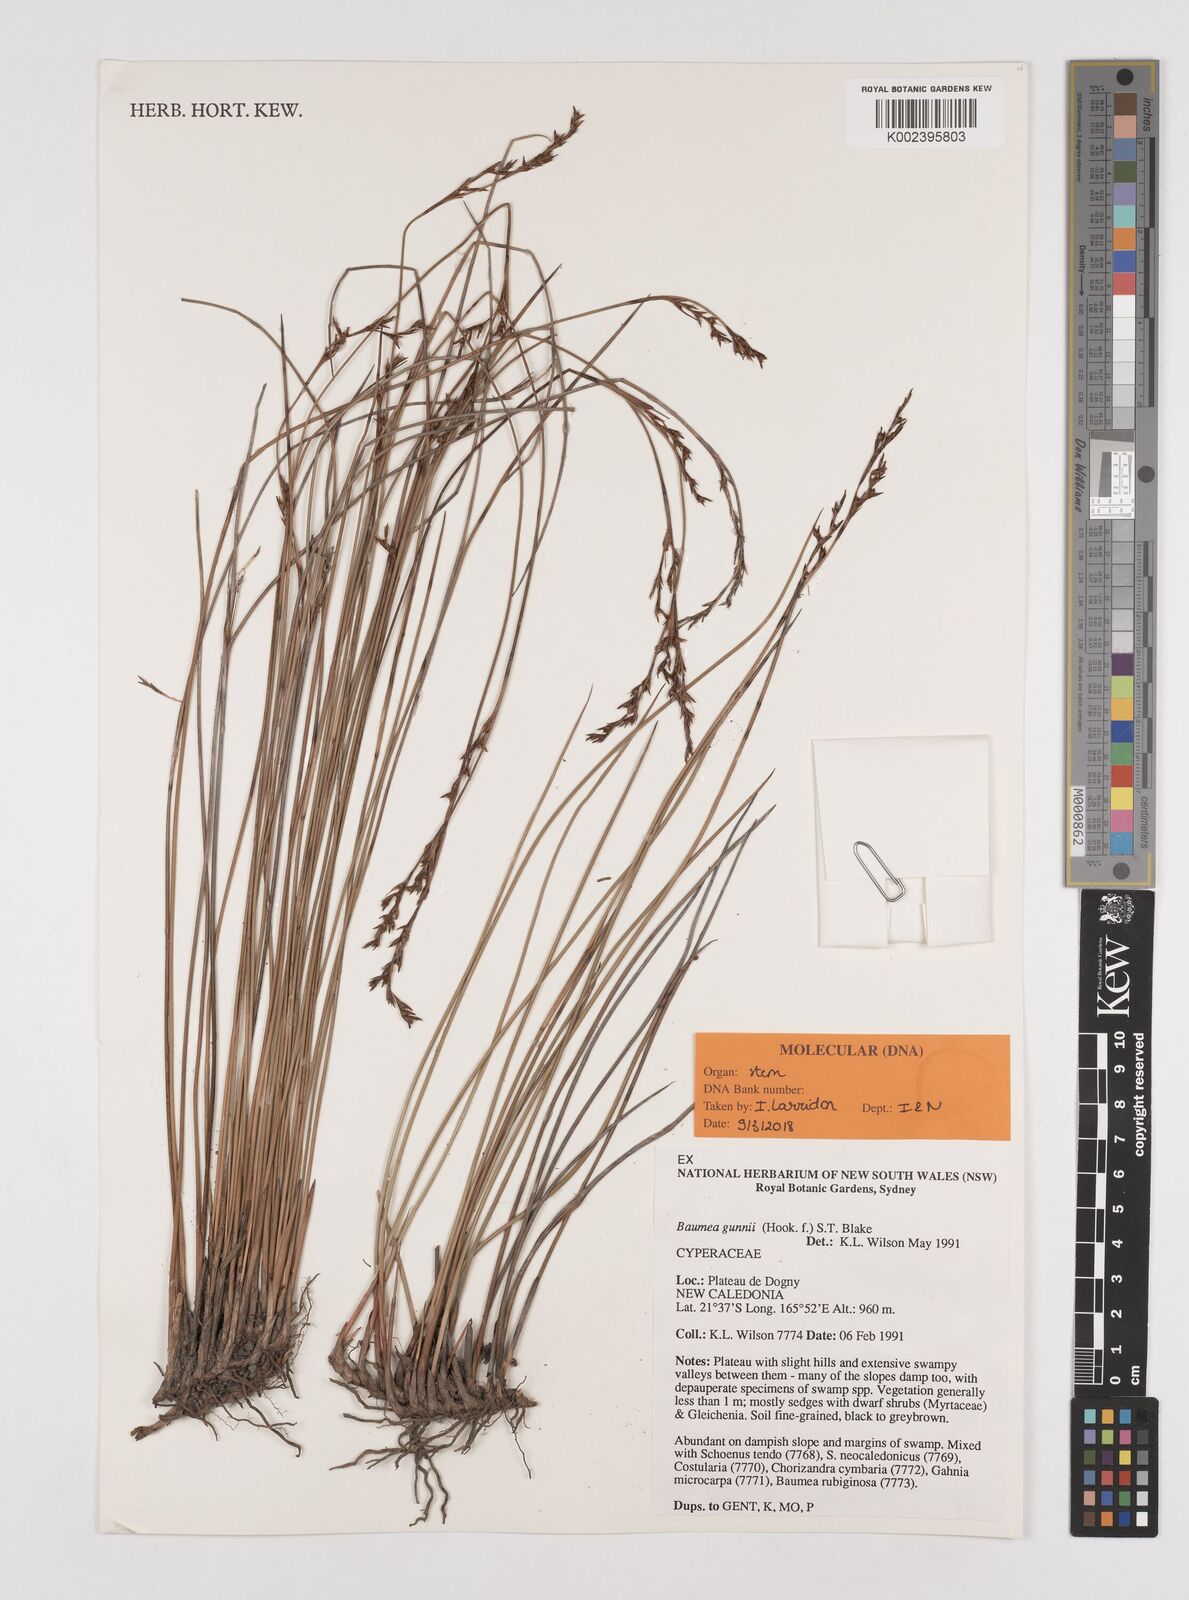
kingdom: Plantae
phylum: Tracheophyta
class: Liliopsida
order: Poales
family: Cyperaceae
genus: Machaerina
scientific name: Machaerina gunnii
